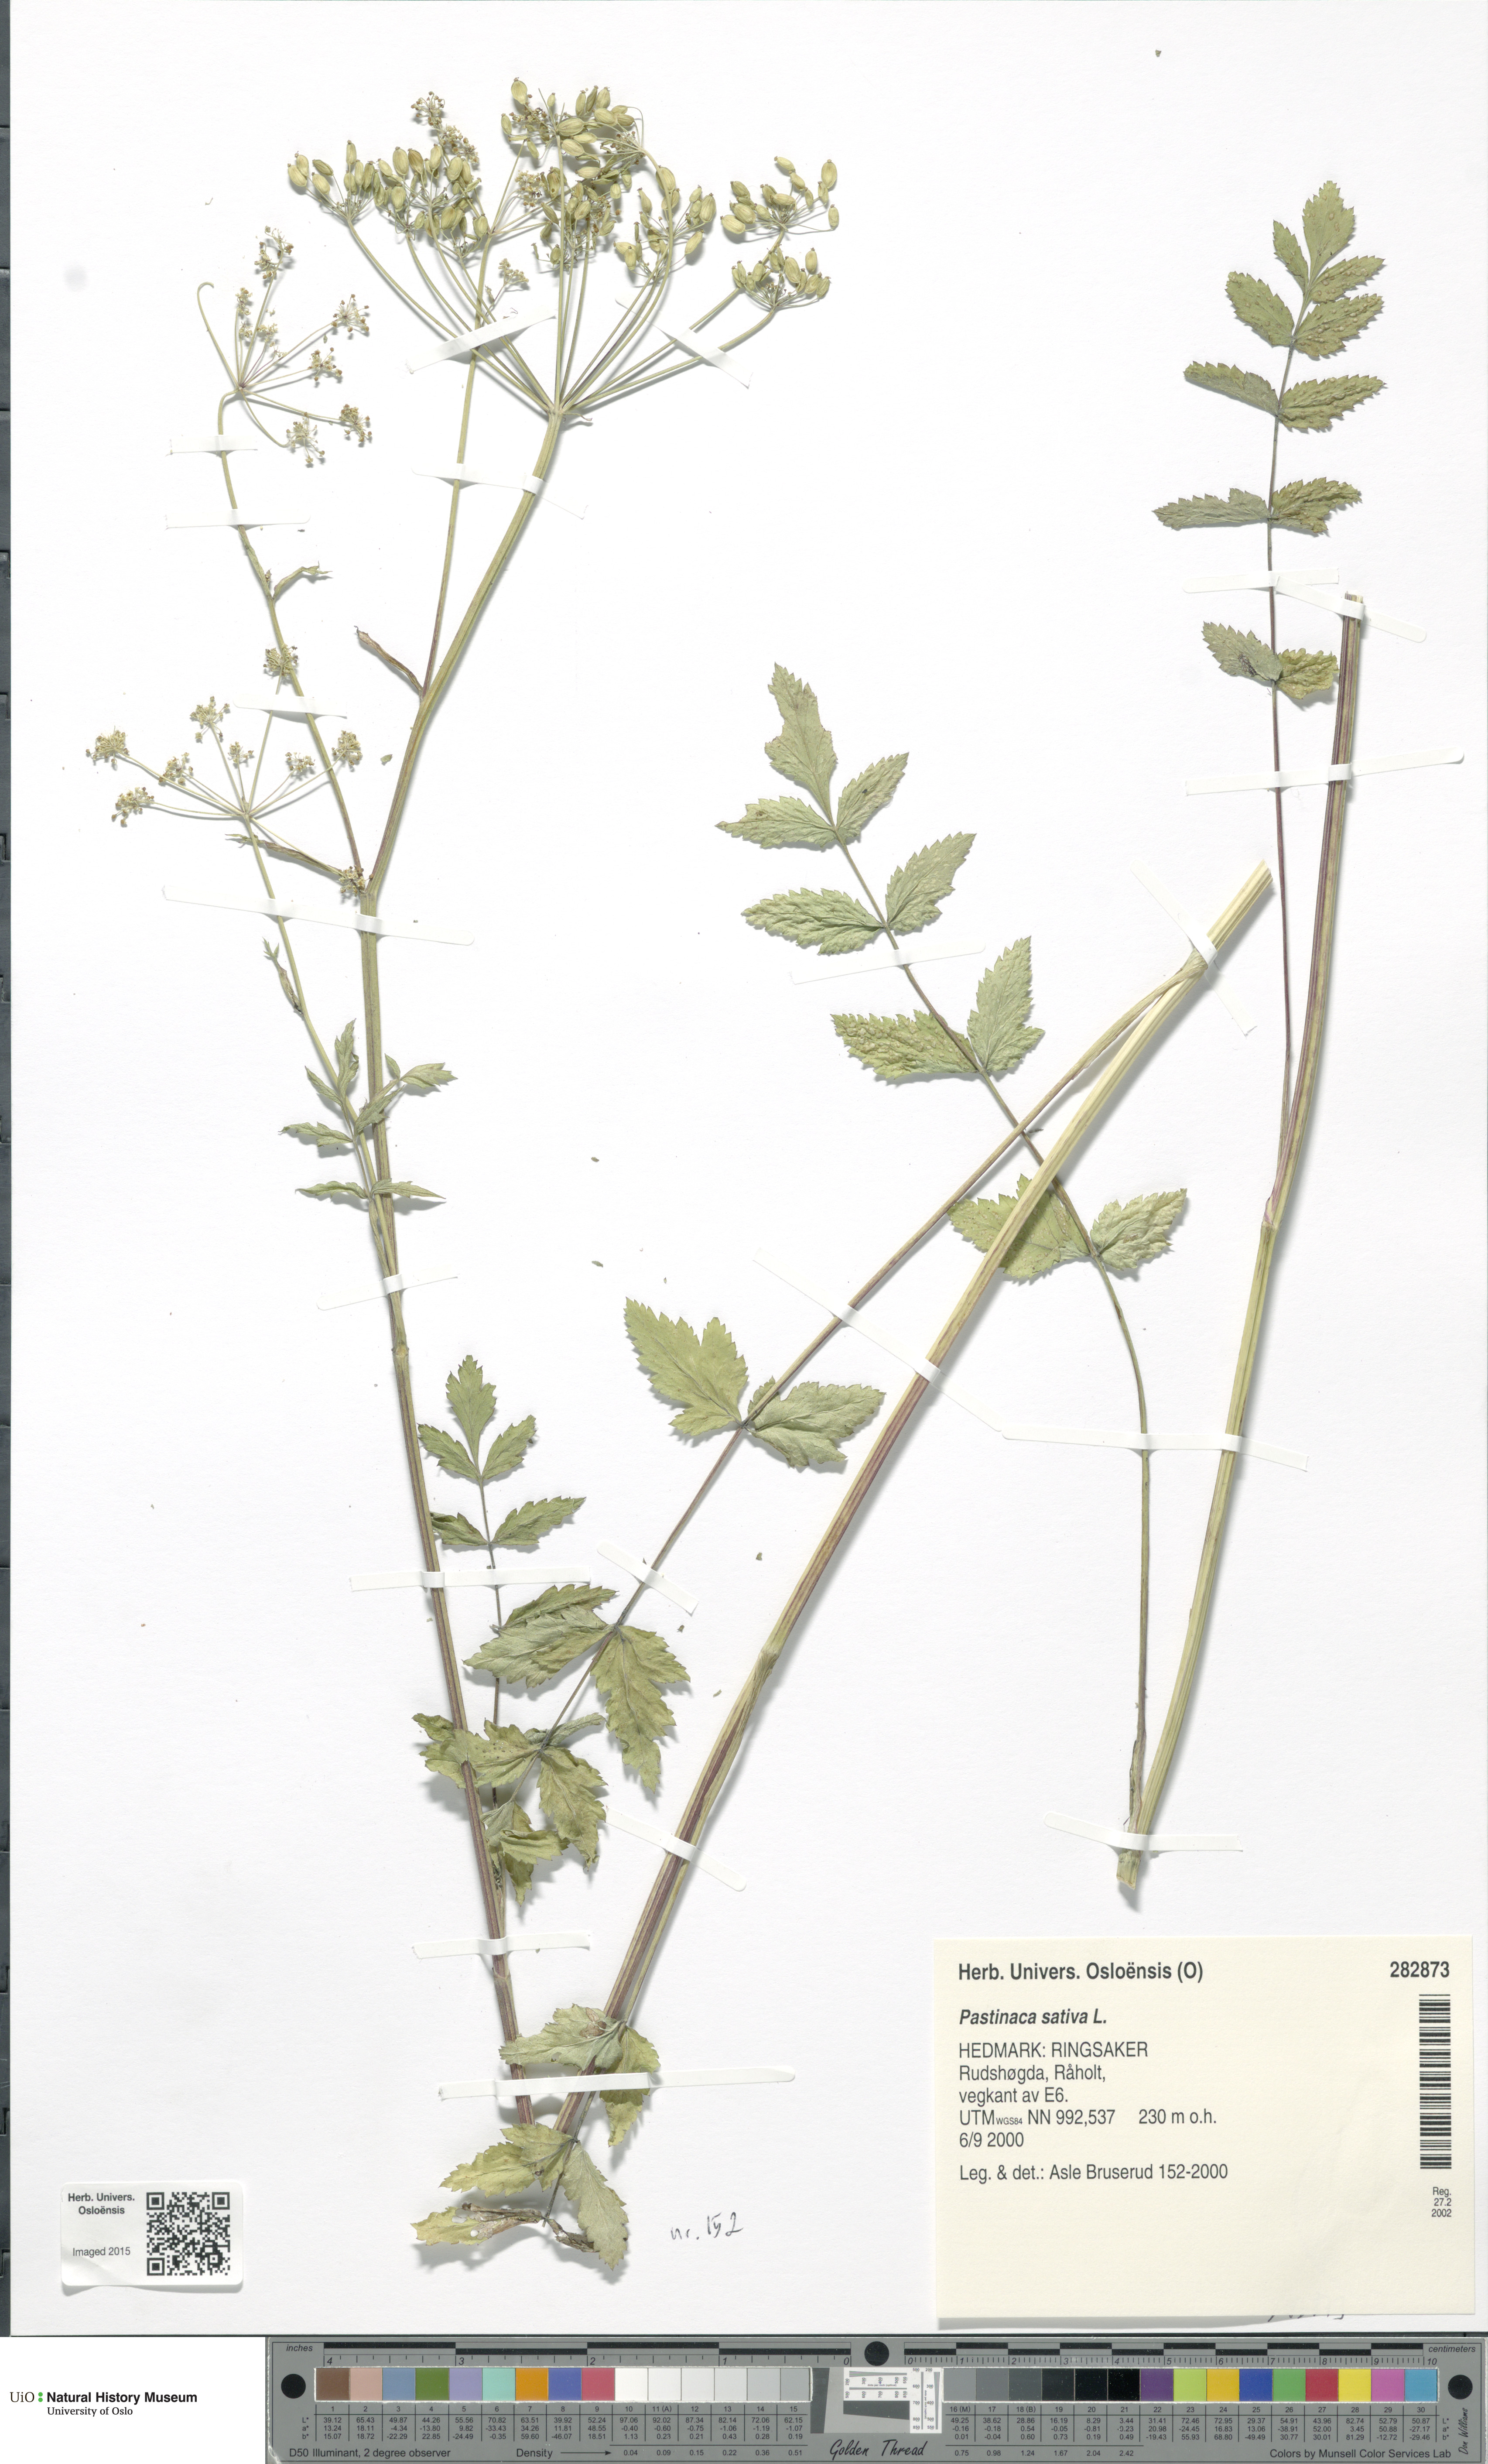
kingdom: Plantae
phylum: Tracheophyta
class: Magnoliopsida
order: Apiales
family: Apiaceae
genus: Pastinaca
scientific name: Pastinaca sativa
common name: Wild parsnip
